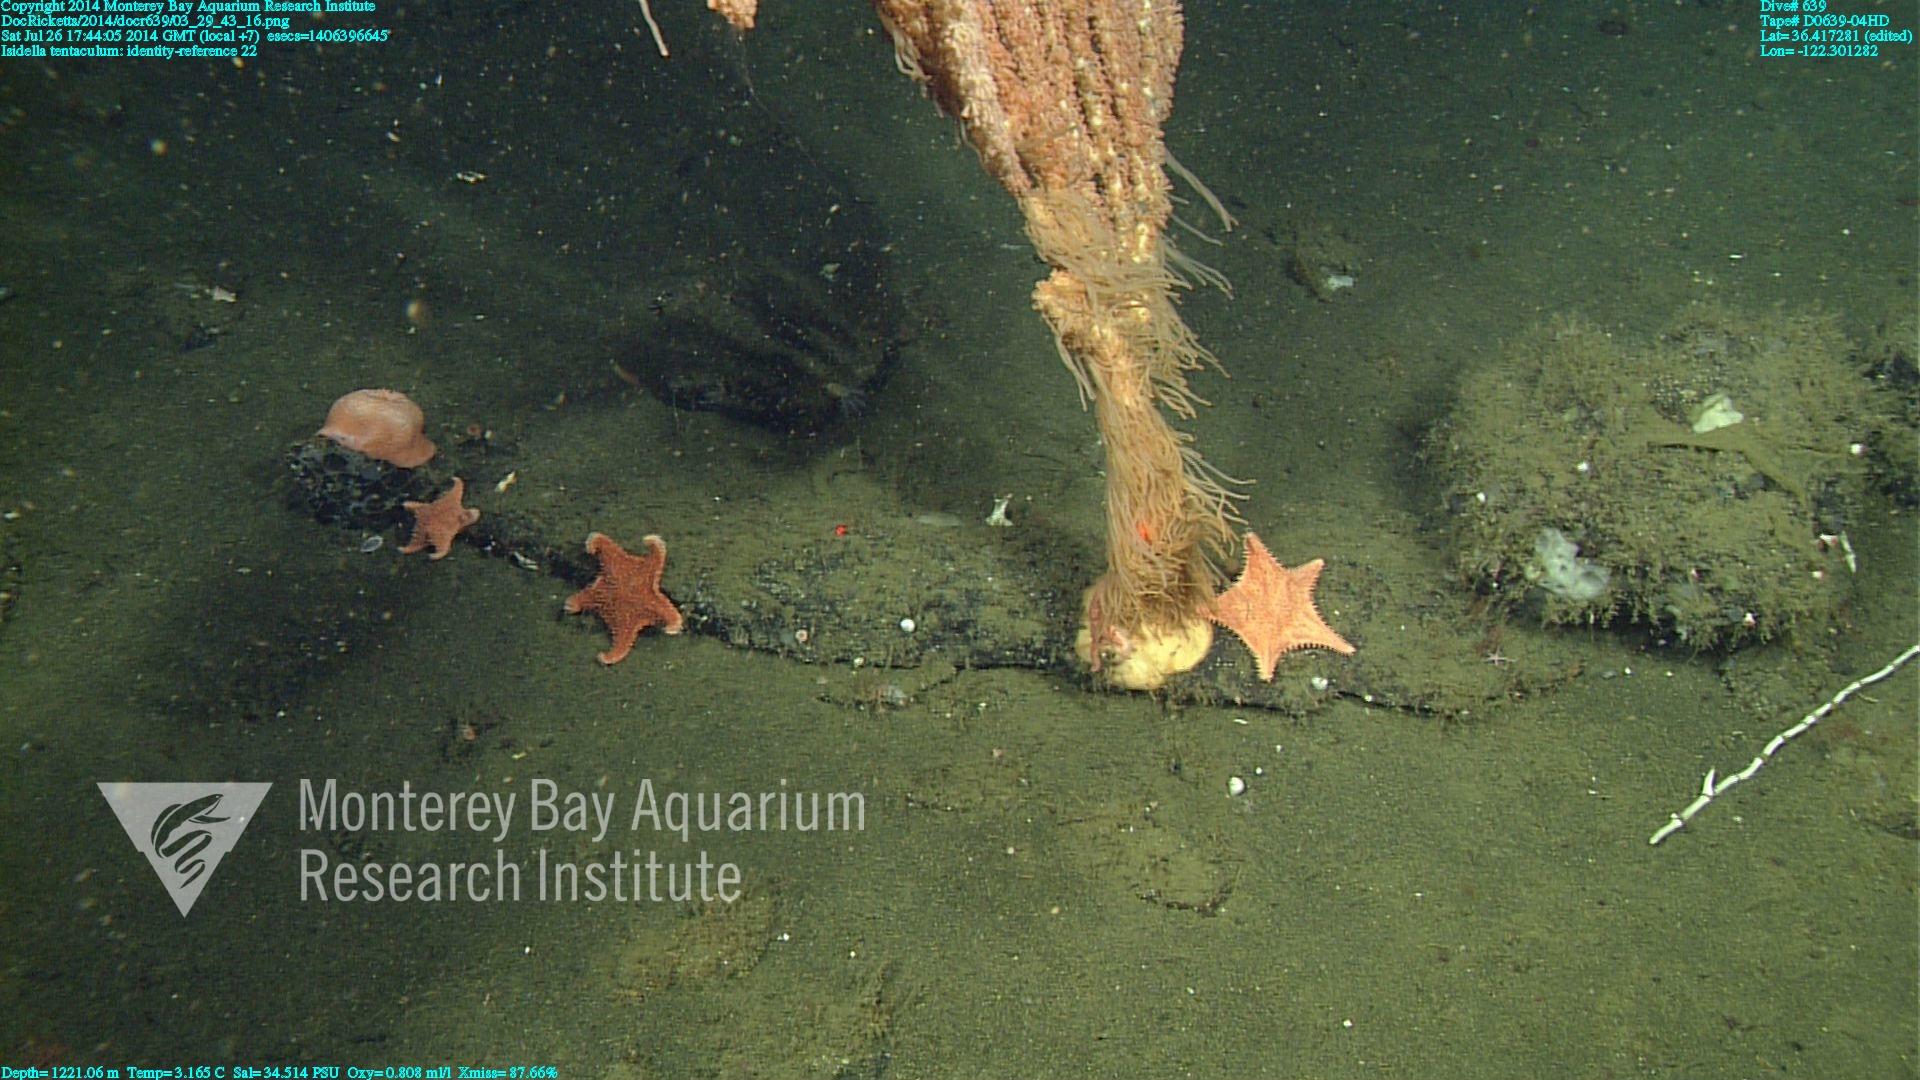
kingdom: Animalia
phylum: Cnidaria
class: Anthozoa
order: Scleralcyonacea
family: Keratoisididae
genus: Isidella
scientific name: Isidella tentaculum
